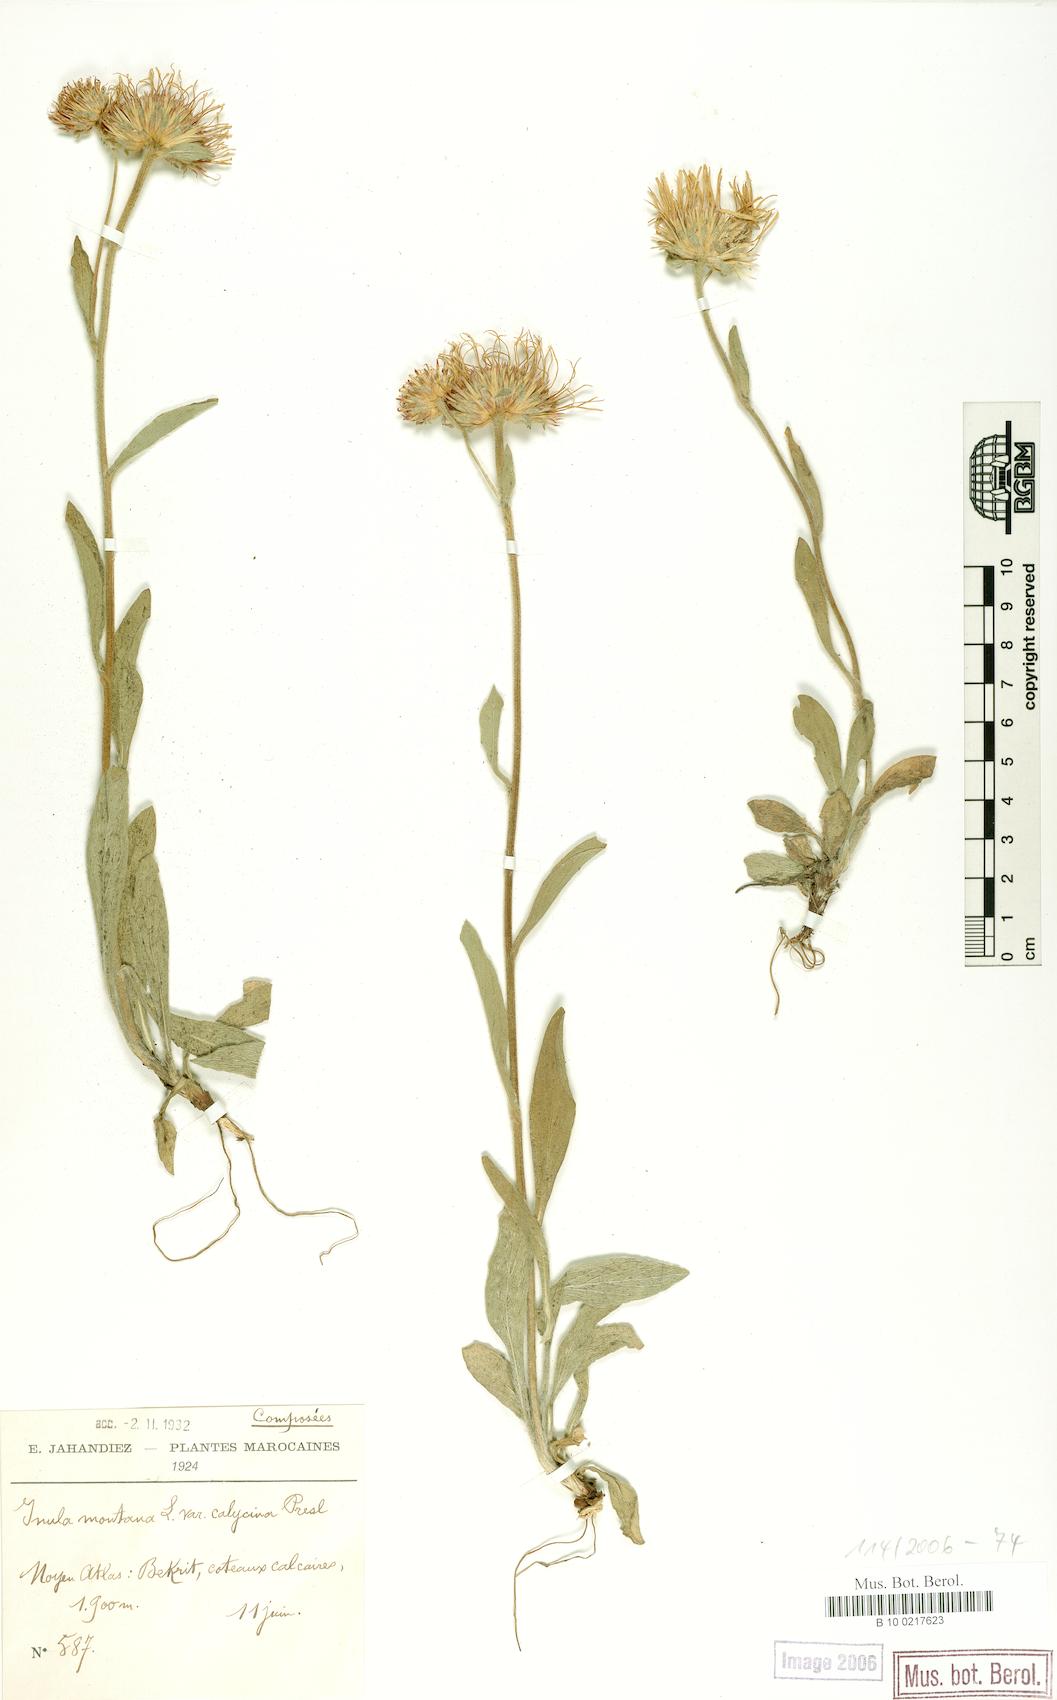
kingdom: Plantae
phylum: Tracheophyta
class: Magnoliopsida
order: Asterales
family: Asteraceae
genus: Pentanema
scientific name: Pentanema montanum
